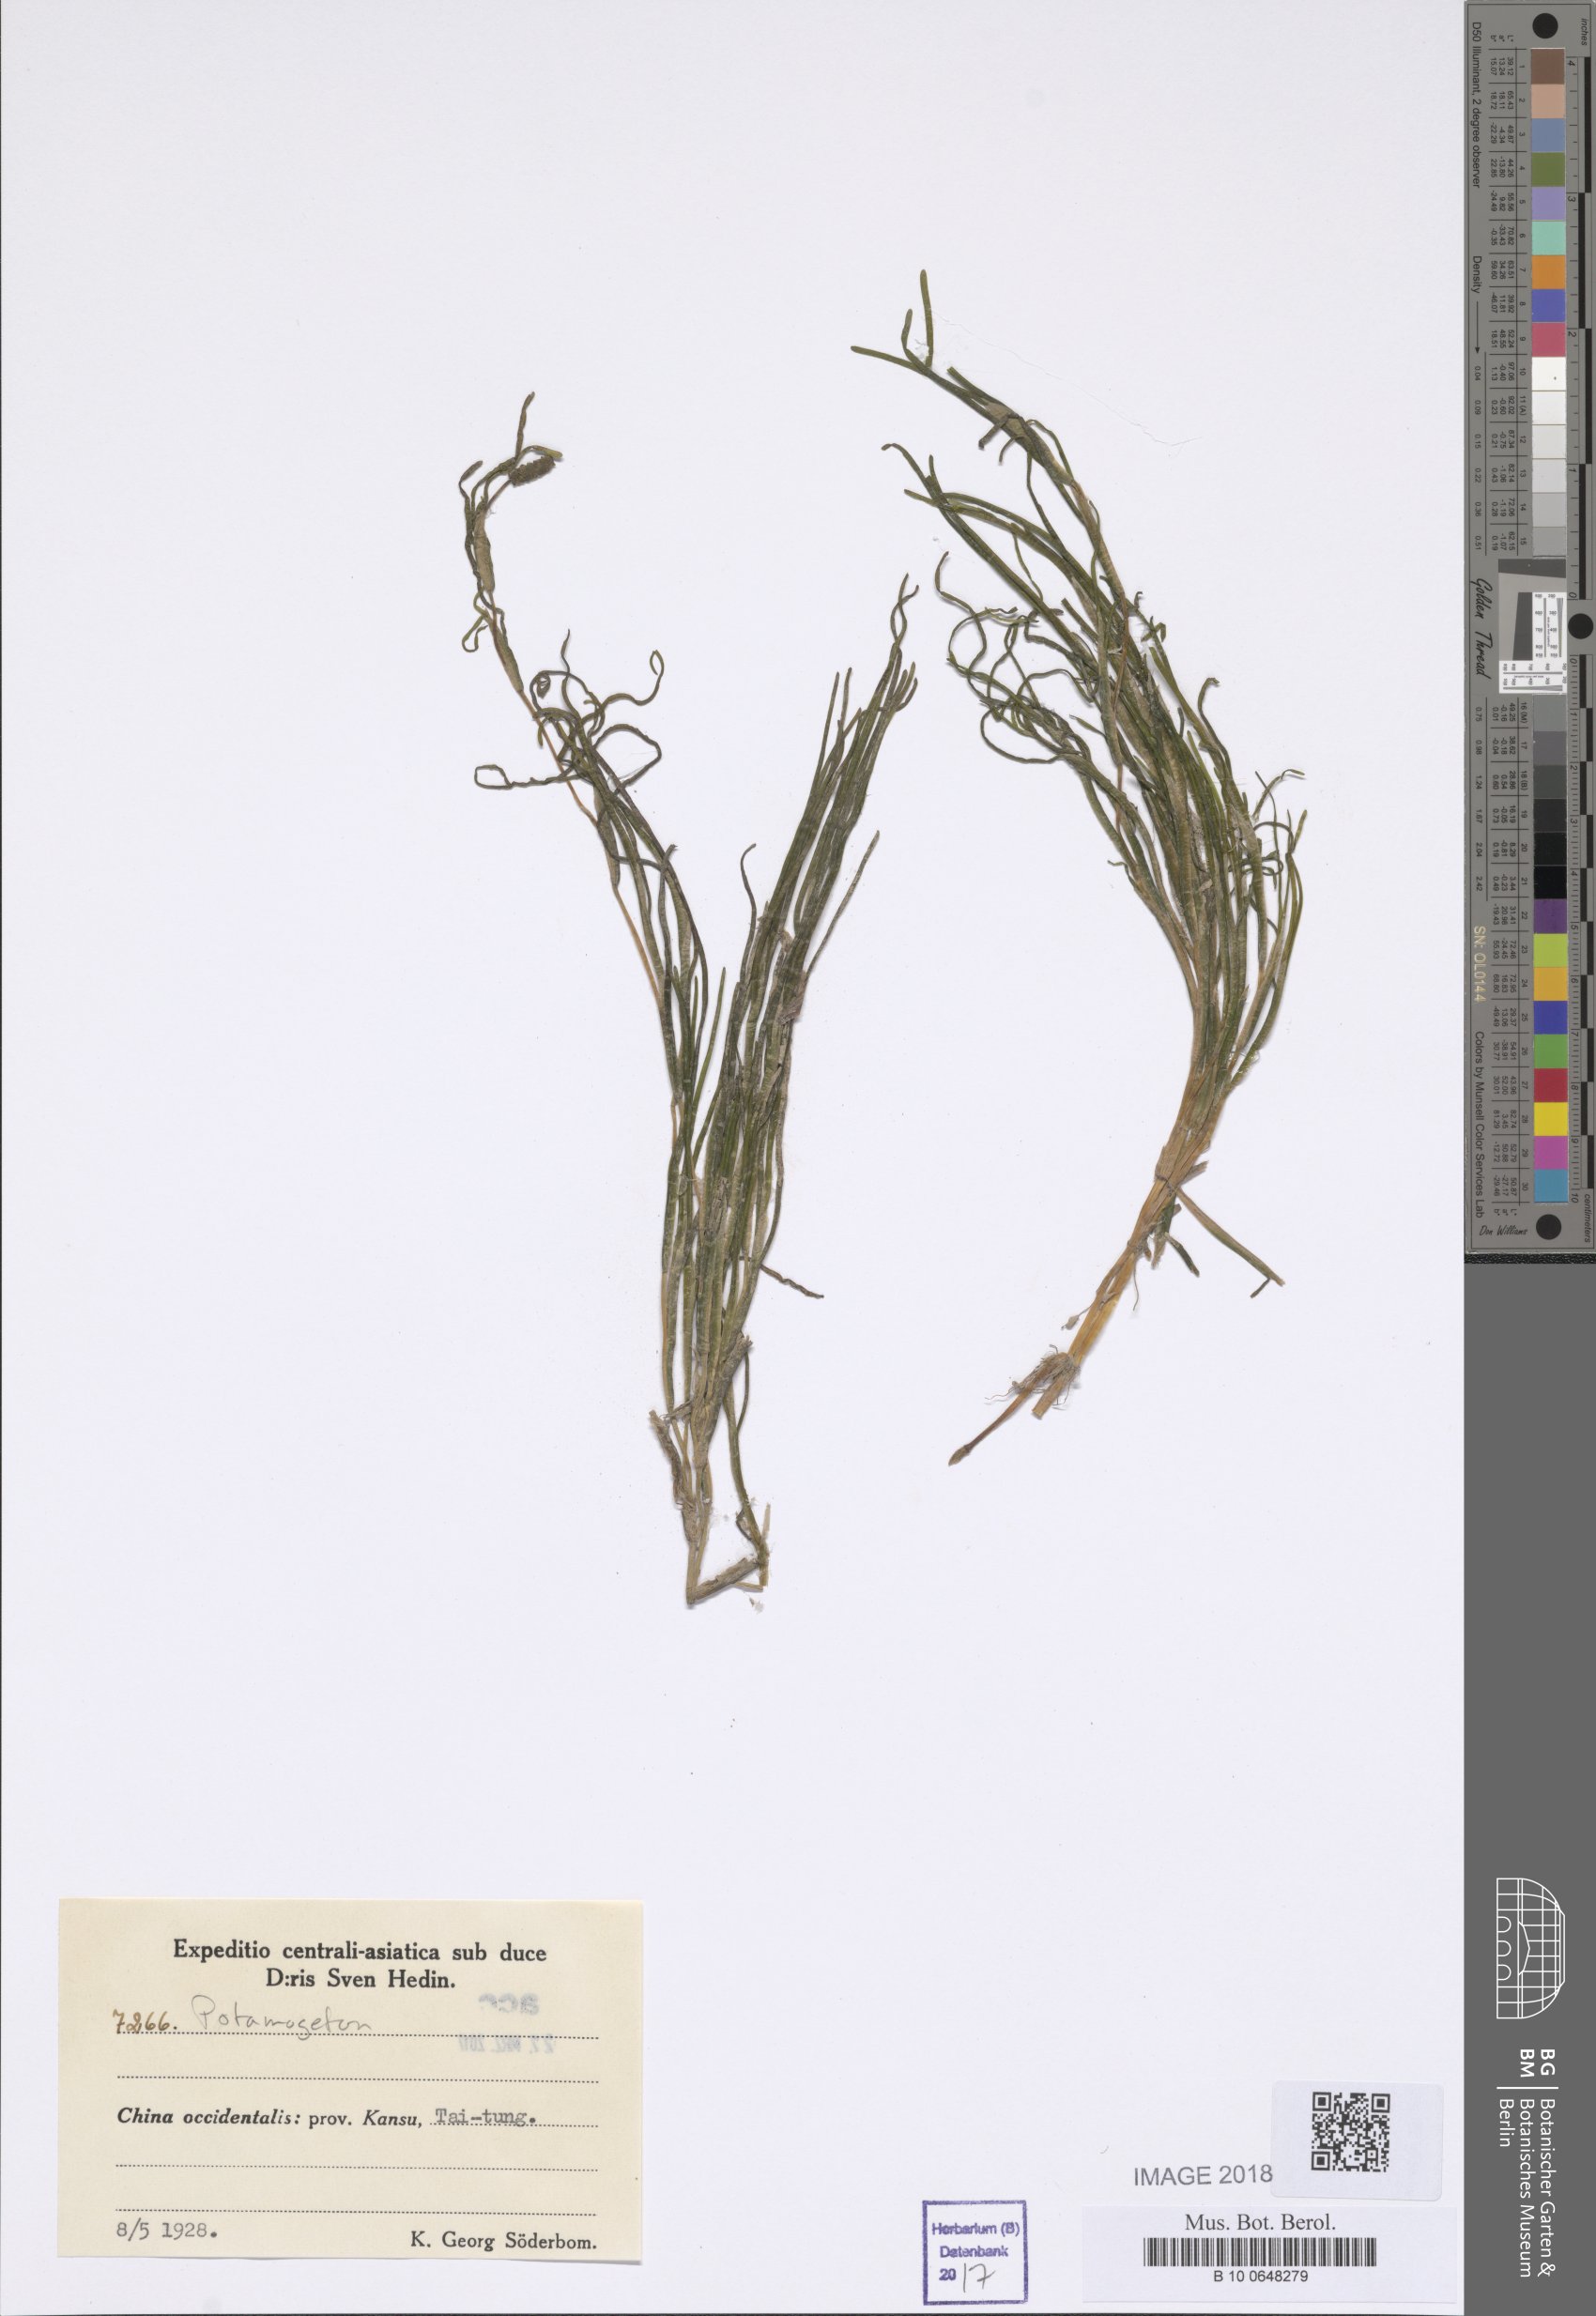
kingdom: Plantae
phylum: Tracheophyta
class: Liliopsida
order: Alismatales
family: Potamogetonaceae
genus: Potamogeton
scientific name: Potamogeton
